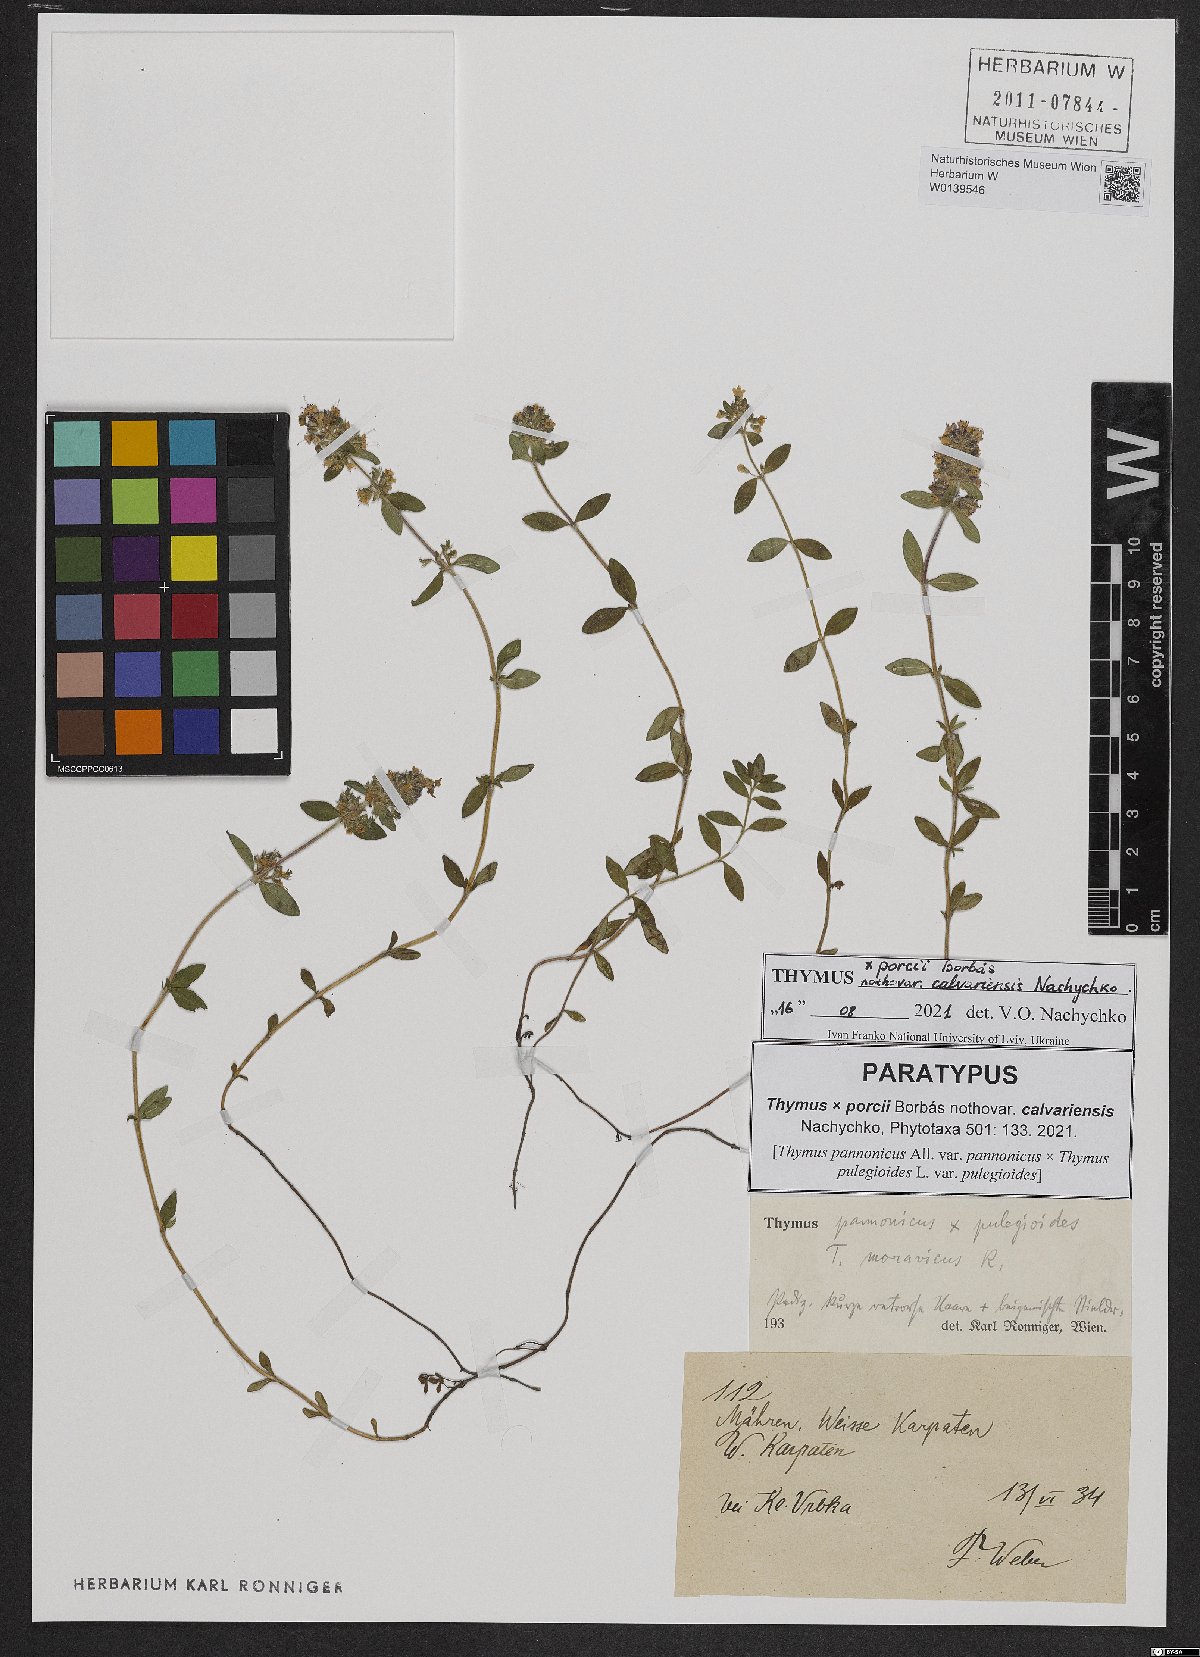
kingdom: Plantae
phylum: Tracheophyta
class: Magnoliopsida
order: Lamiales
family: Lamiaceae
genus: Thymus
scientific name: Thymus porcii
